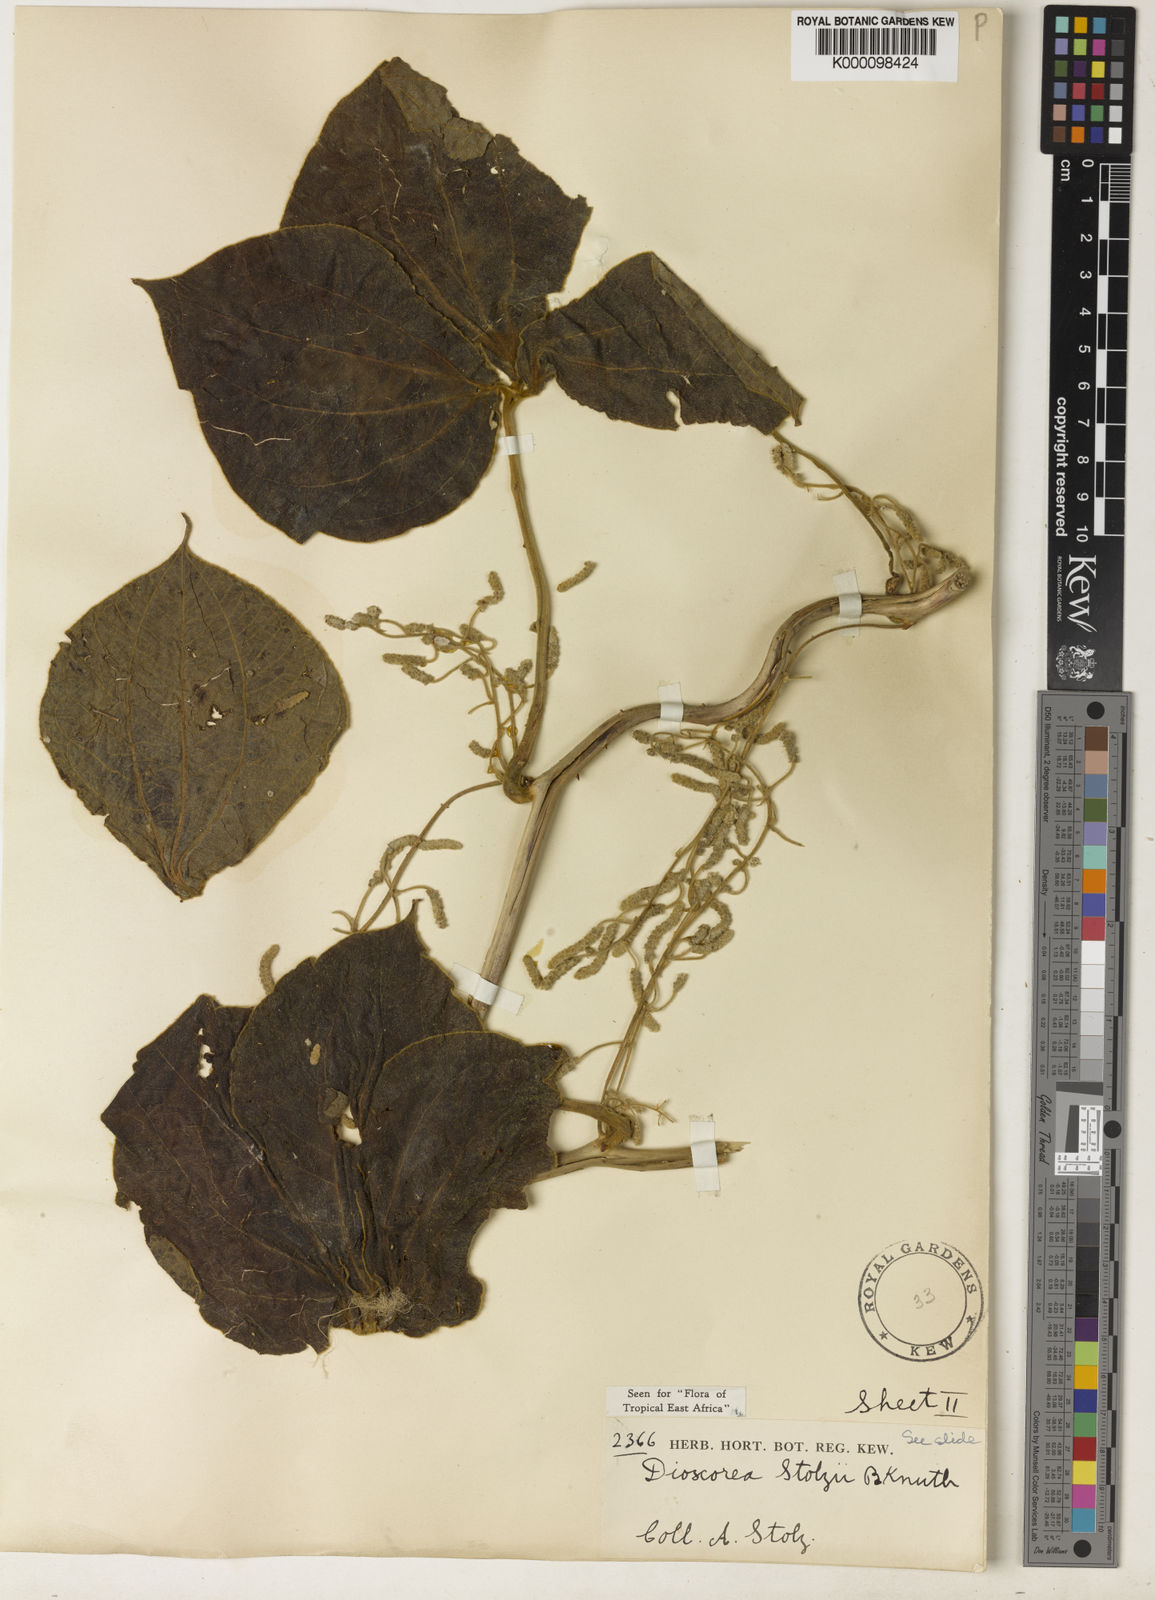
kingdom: Plantae
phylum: Tracheophyta
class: Liliopsida
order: Dioscoreales
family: Dioscoreaceae
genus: Dioscorea
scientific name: Dioscorea cochleariapiculata
